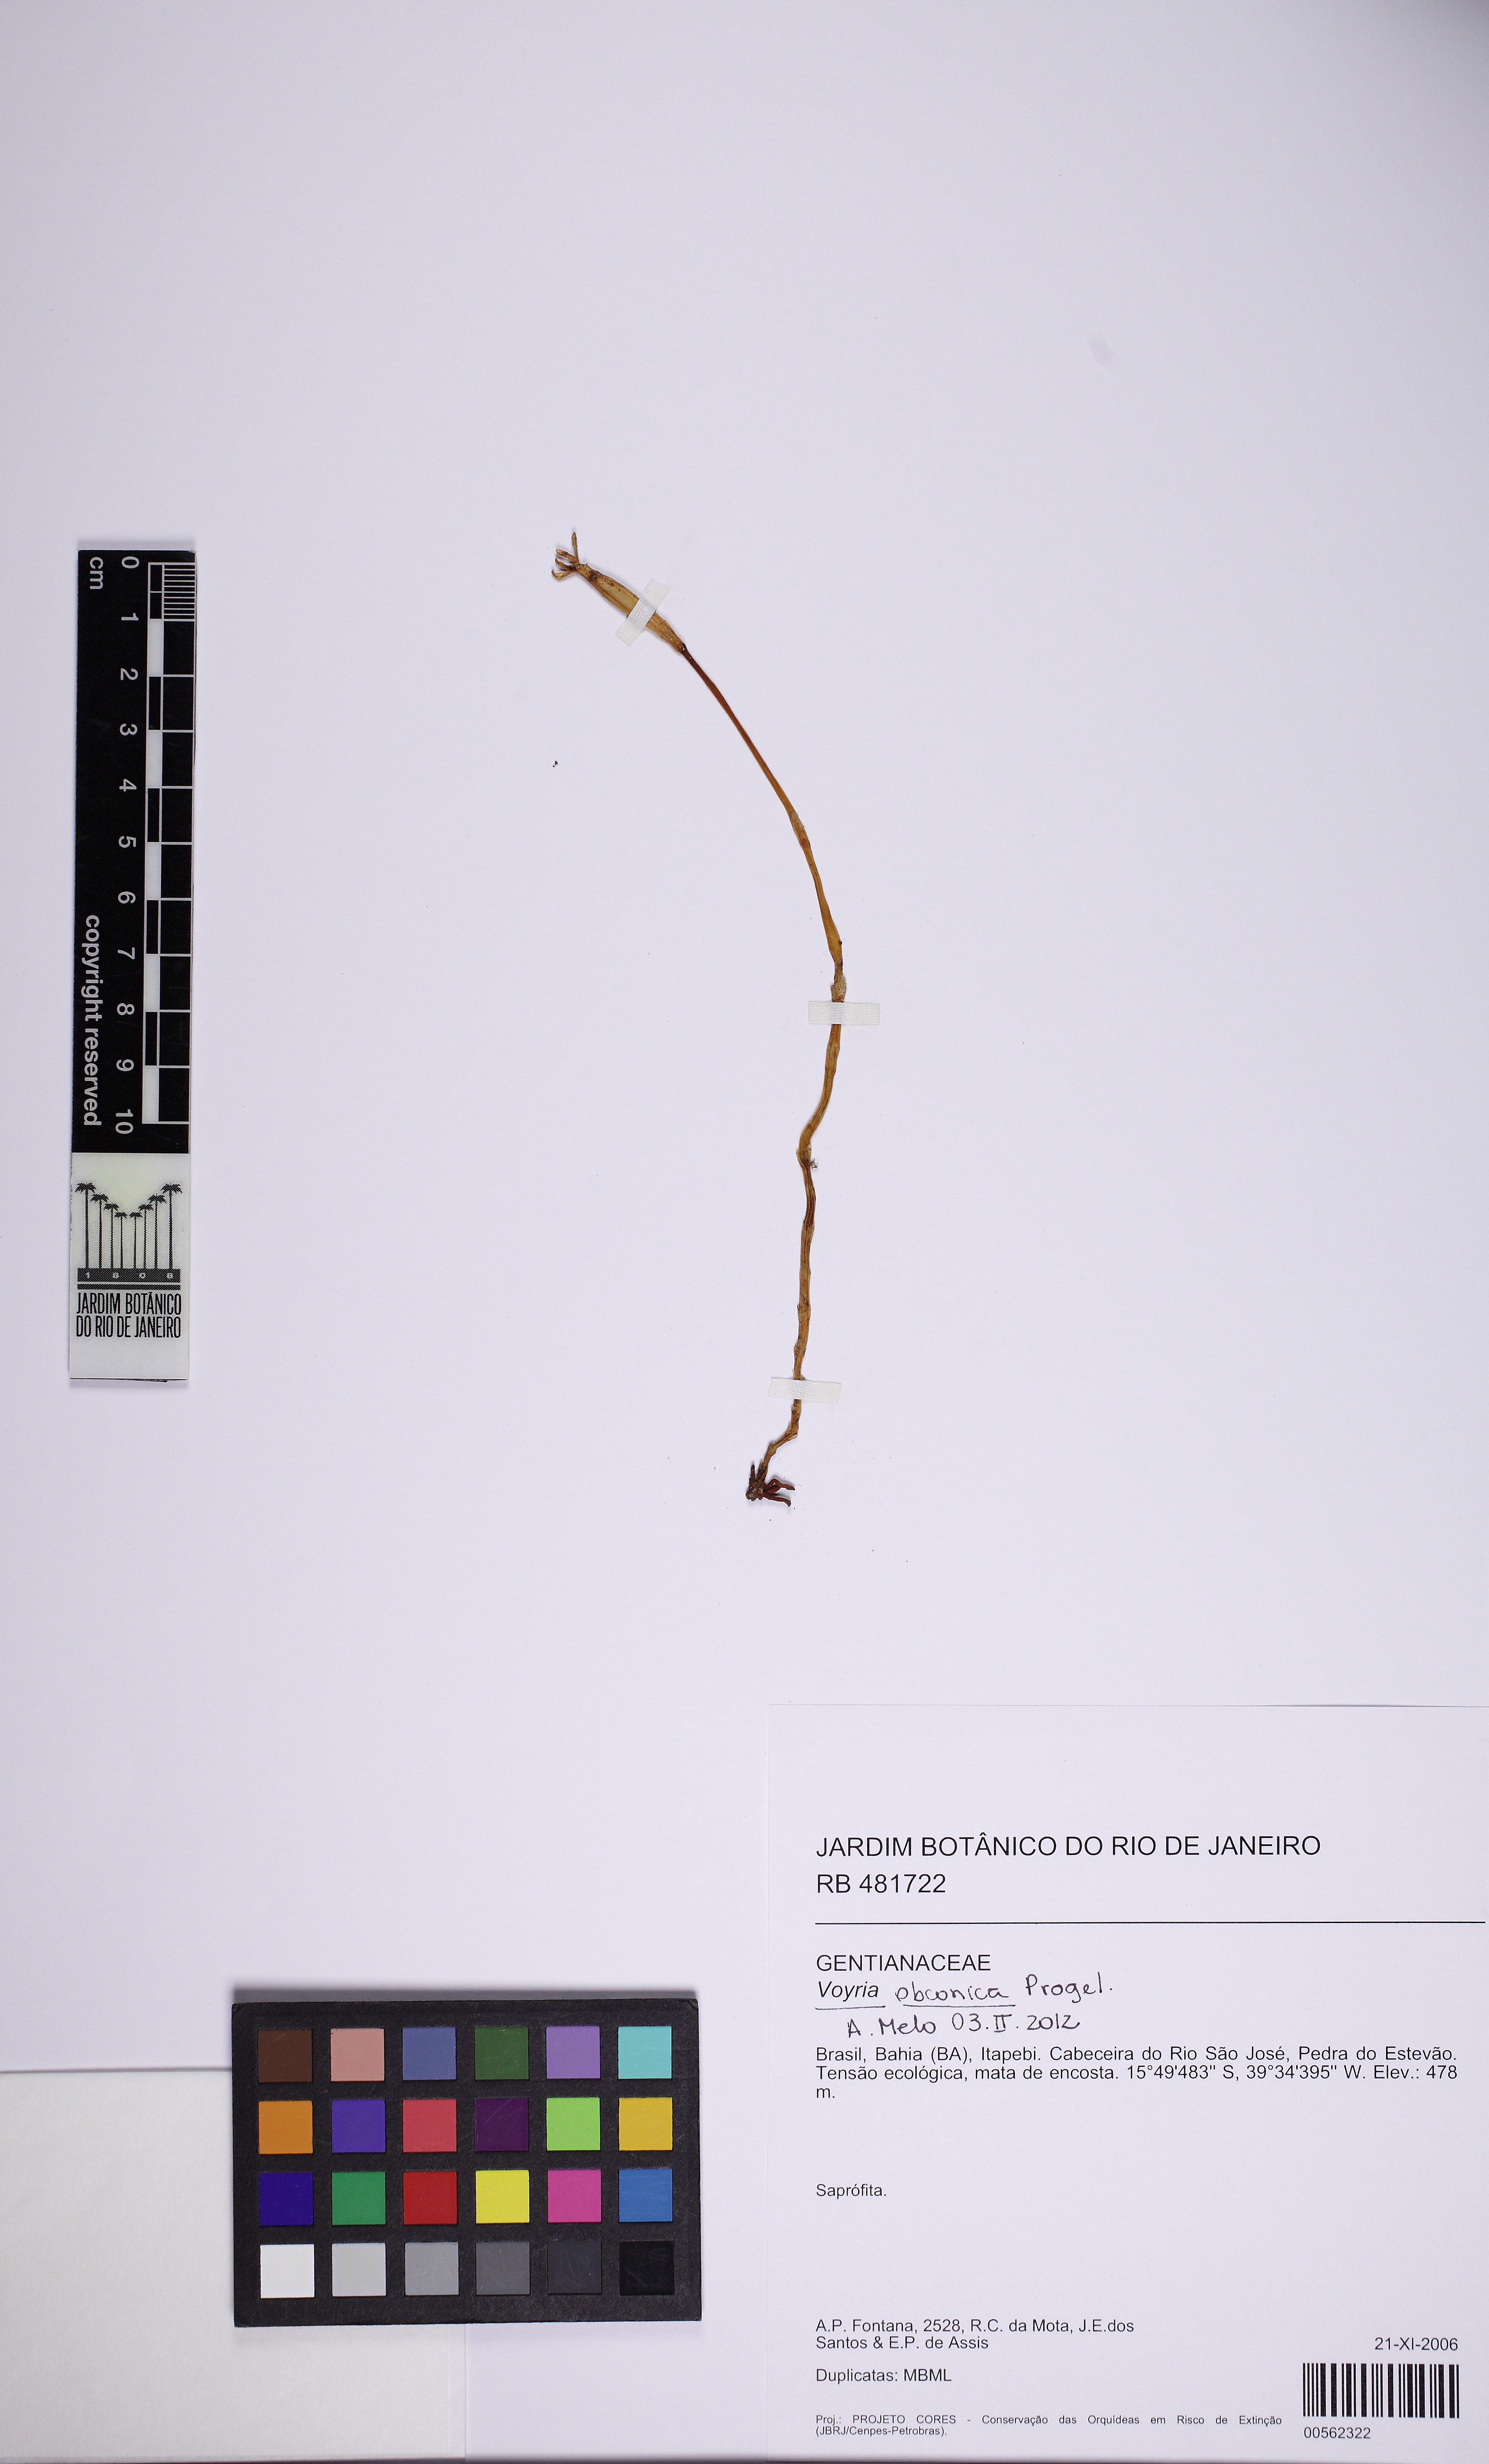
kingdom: Plantae
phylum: Tracheophyta
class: Magnoliopsida
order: Gentianales
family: Gentianaceae
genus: Voyria
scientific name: Voyria obconica
